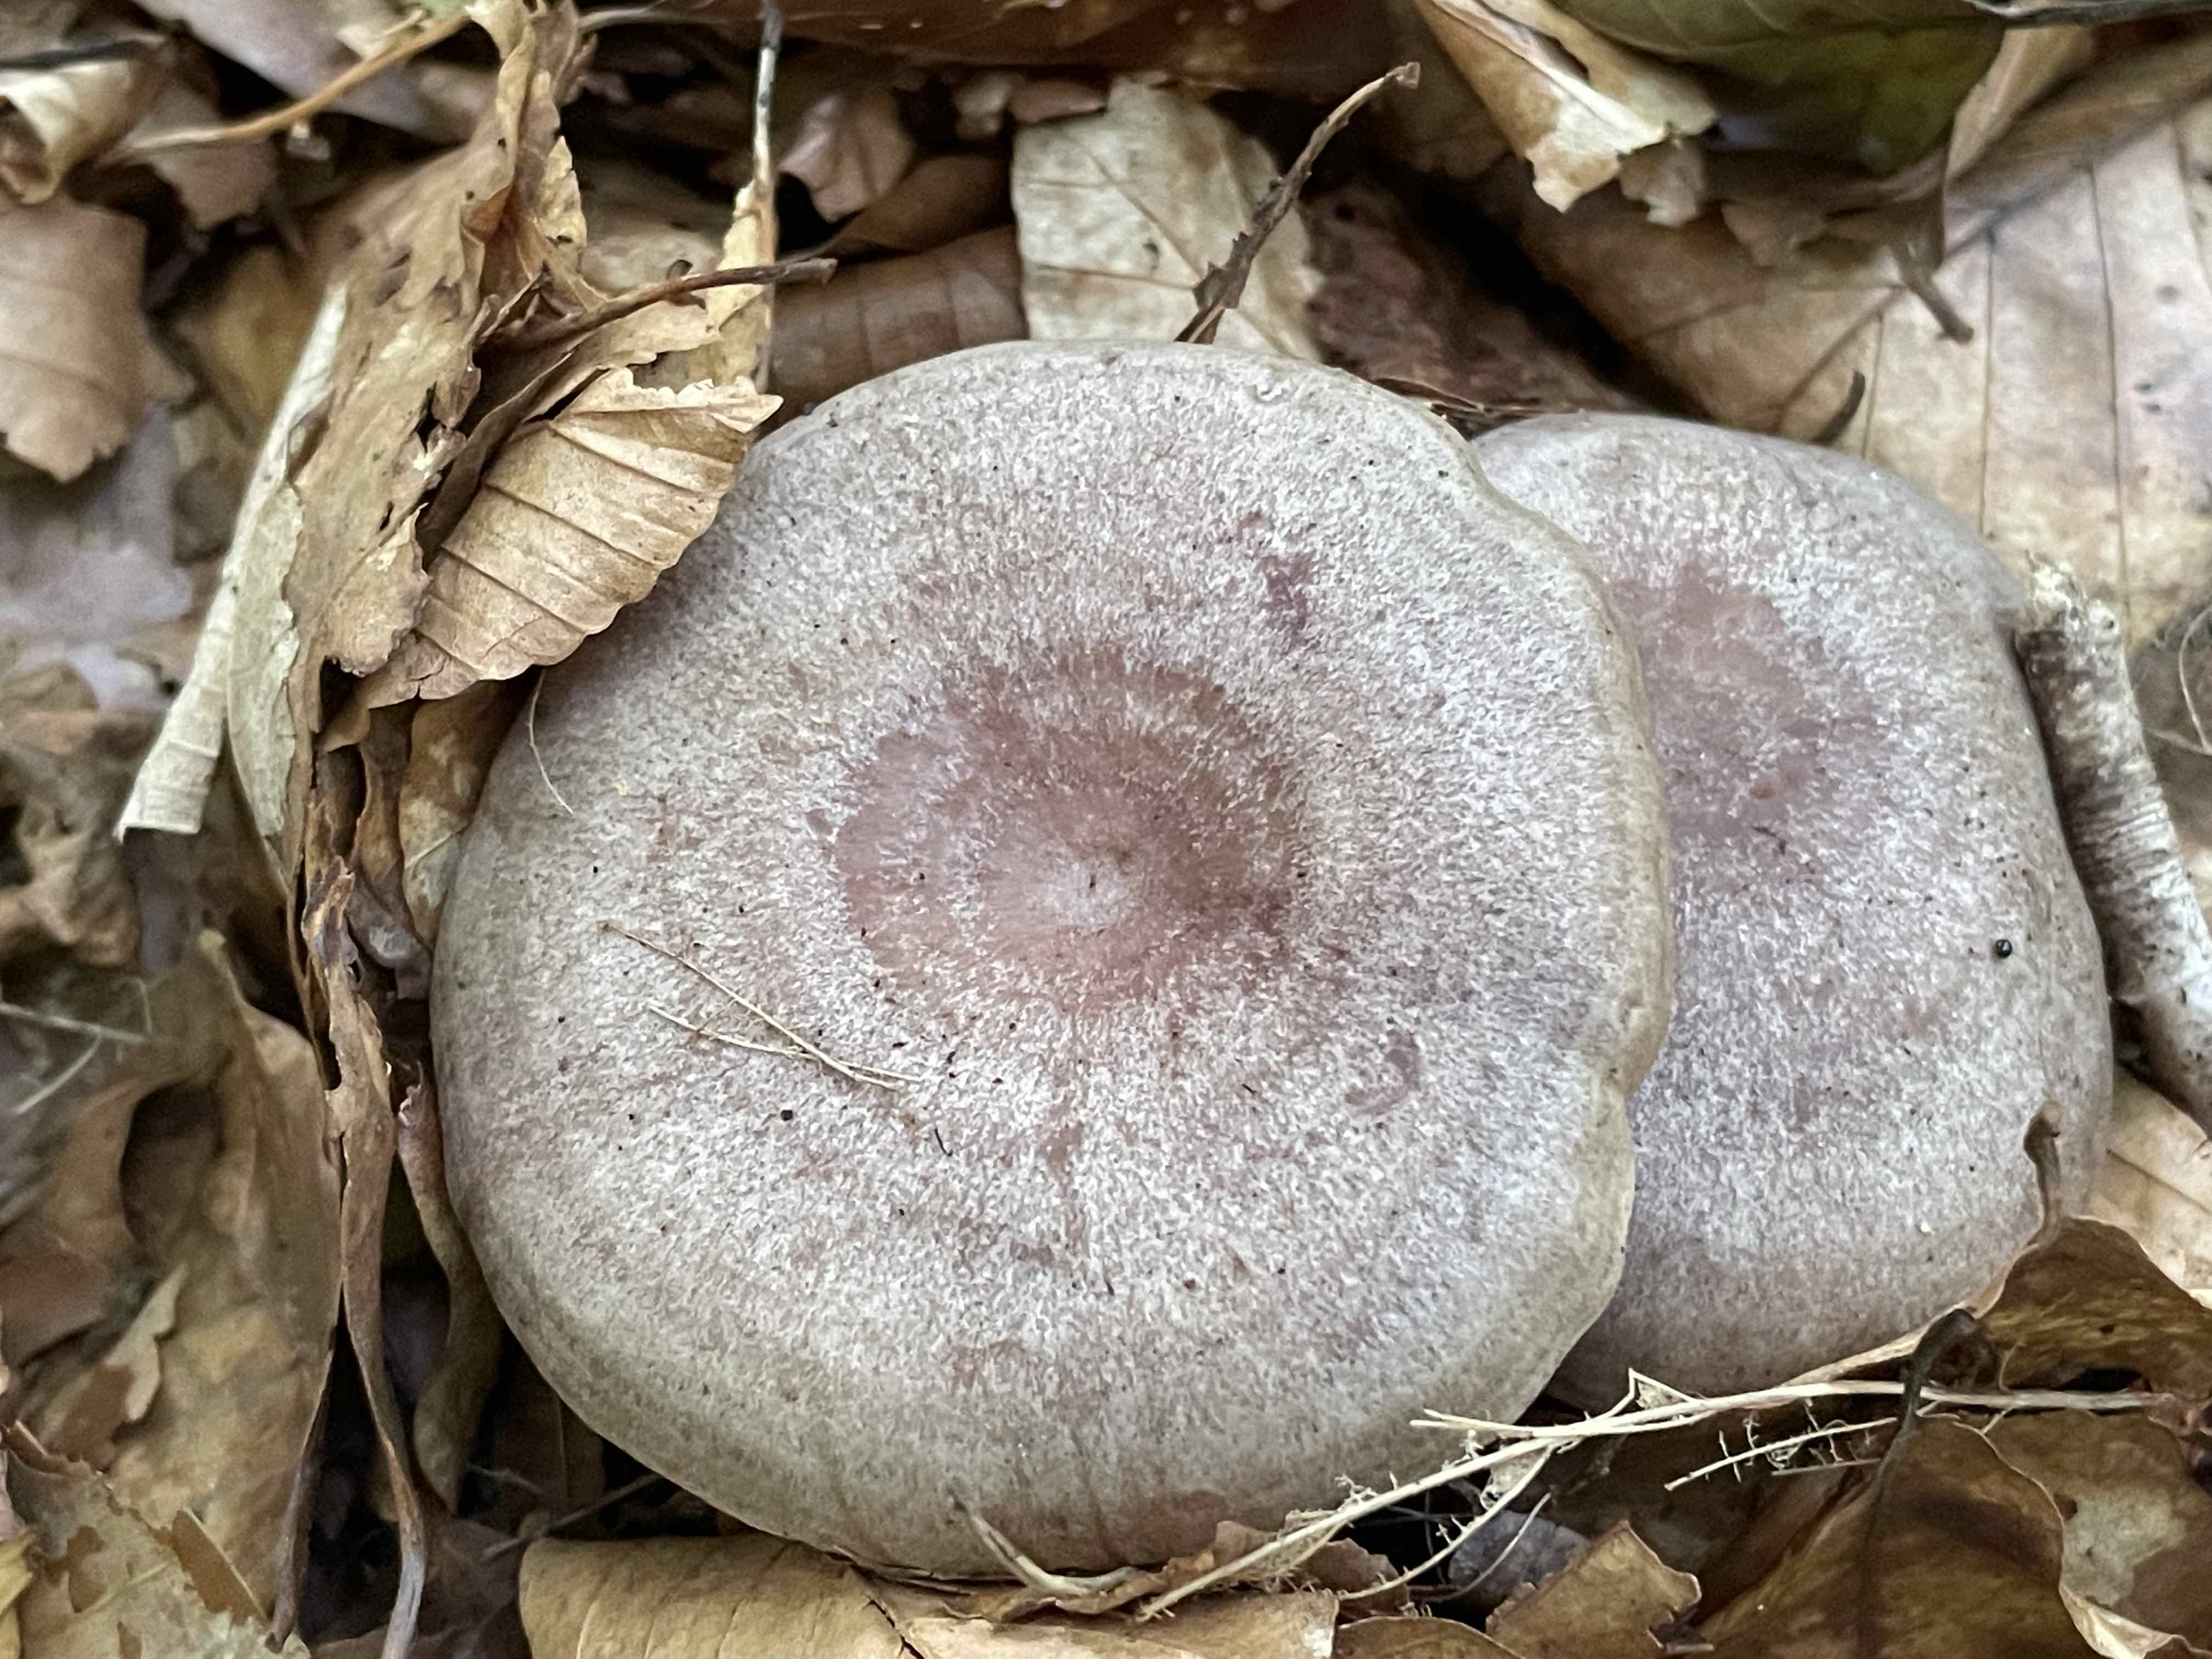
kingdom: Fungi
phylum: Basidiomycota
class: Agaricomycetes
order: Russulales
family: Russulaceae
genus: Lactarius
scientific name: Lactarius circellatus
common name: avnbøg-mælkehat
